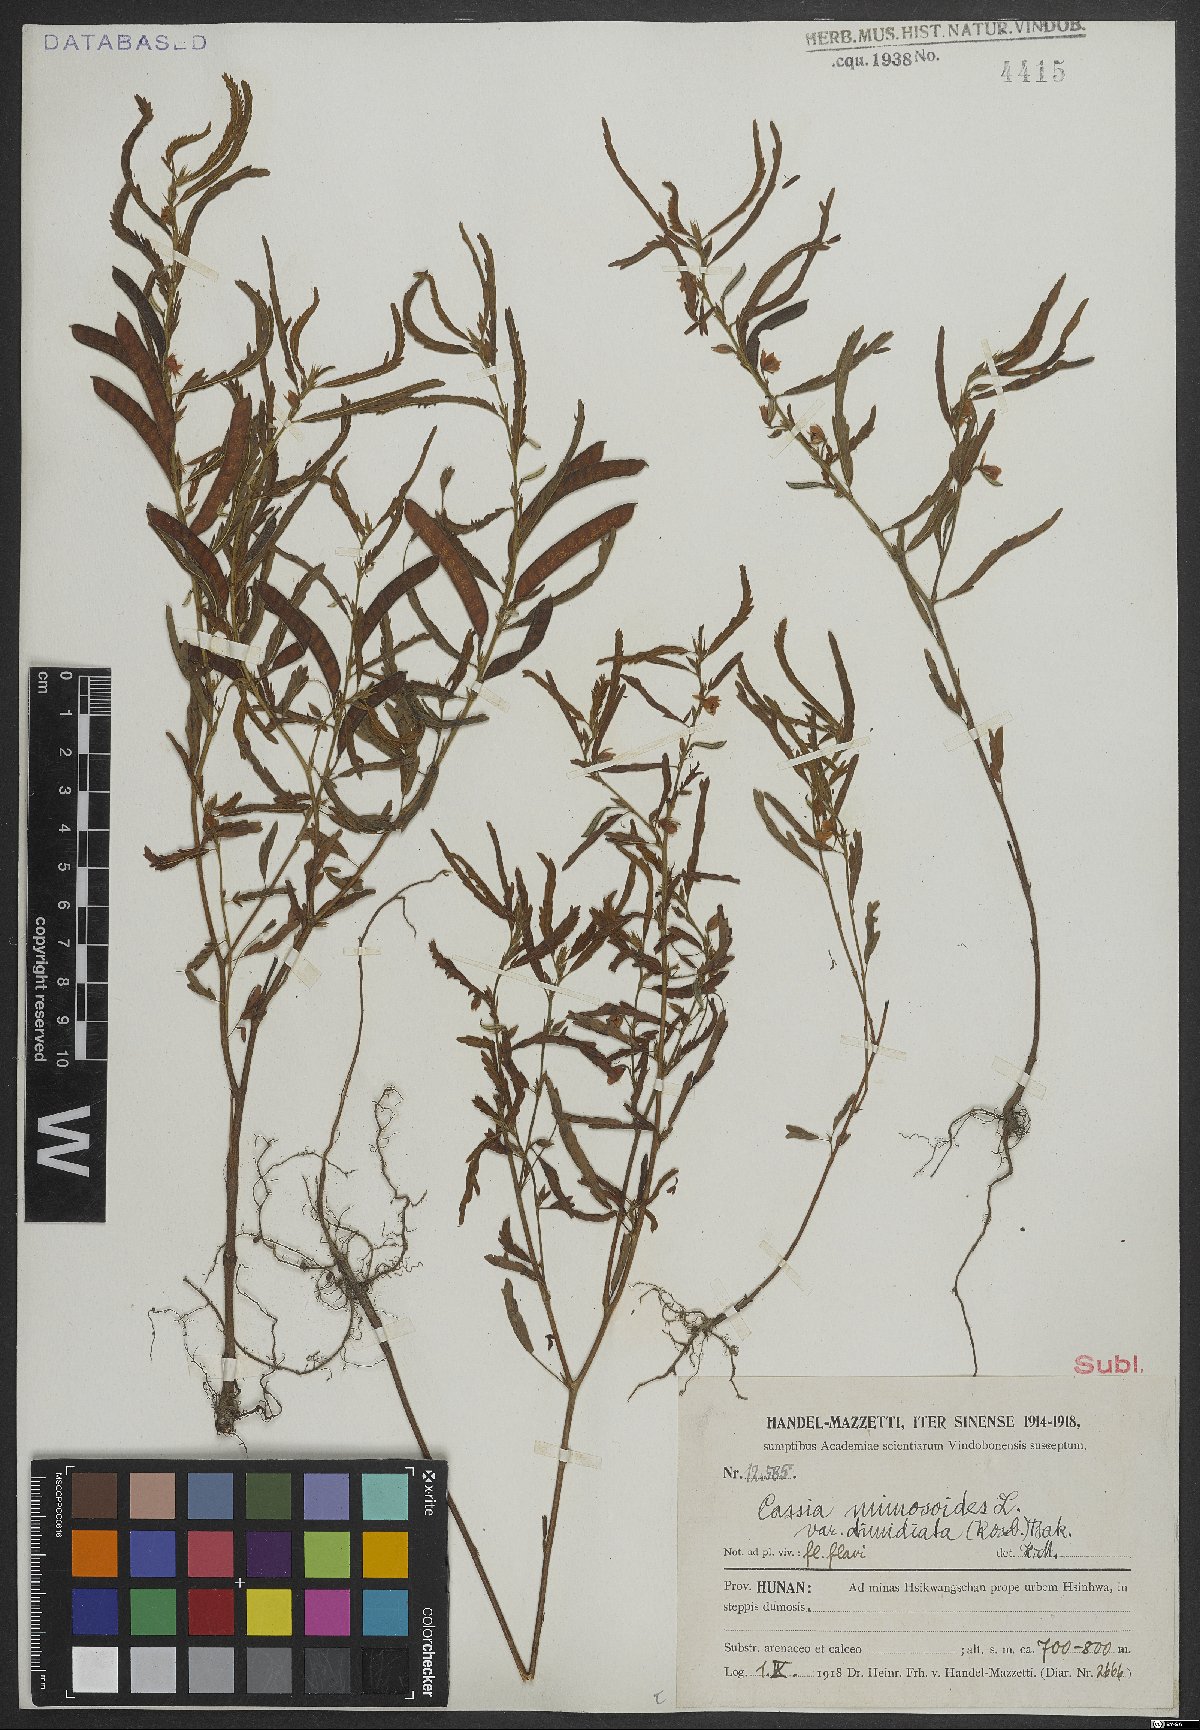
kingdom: Plantae
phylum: Tracheophyta
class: Magnoliopsida
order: Fabales
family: Fabaceae
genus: Chamaecrista
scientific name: Chamaecrista nomame
